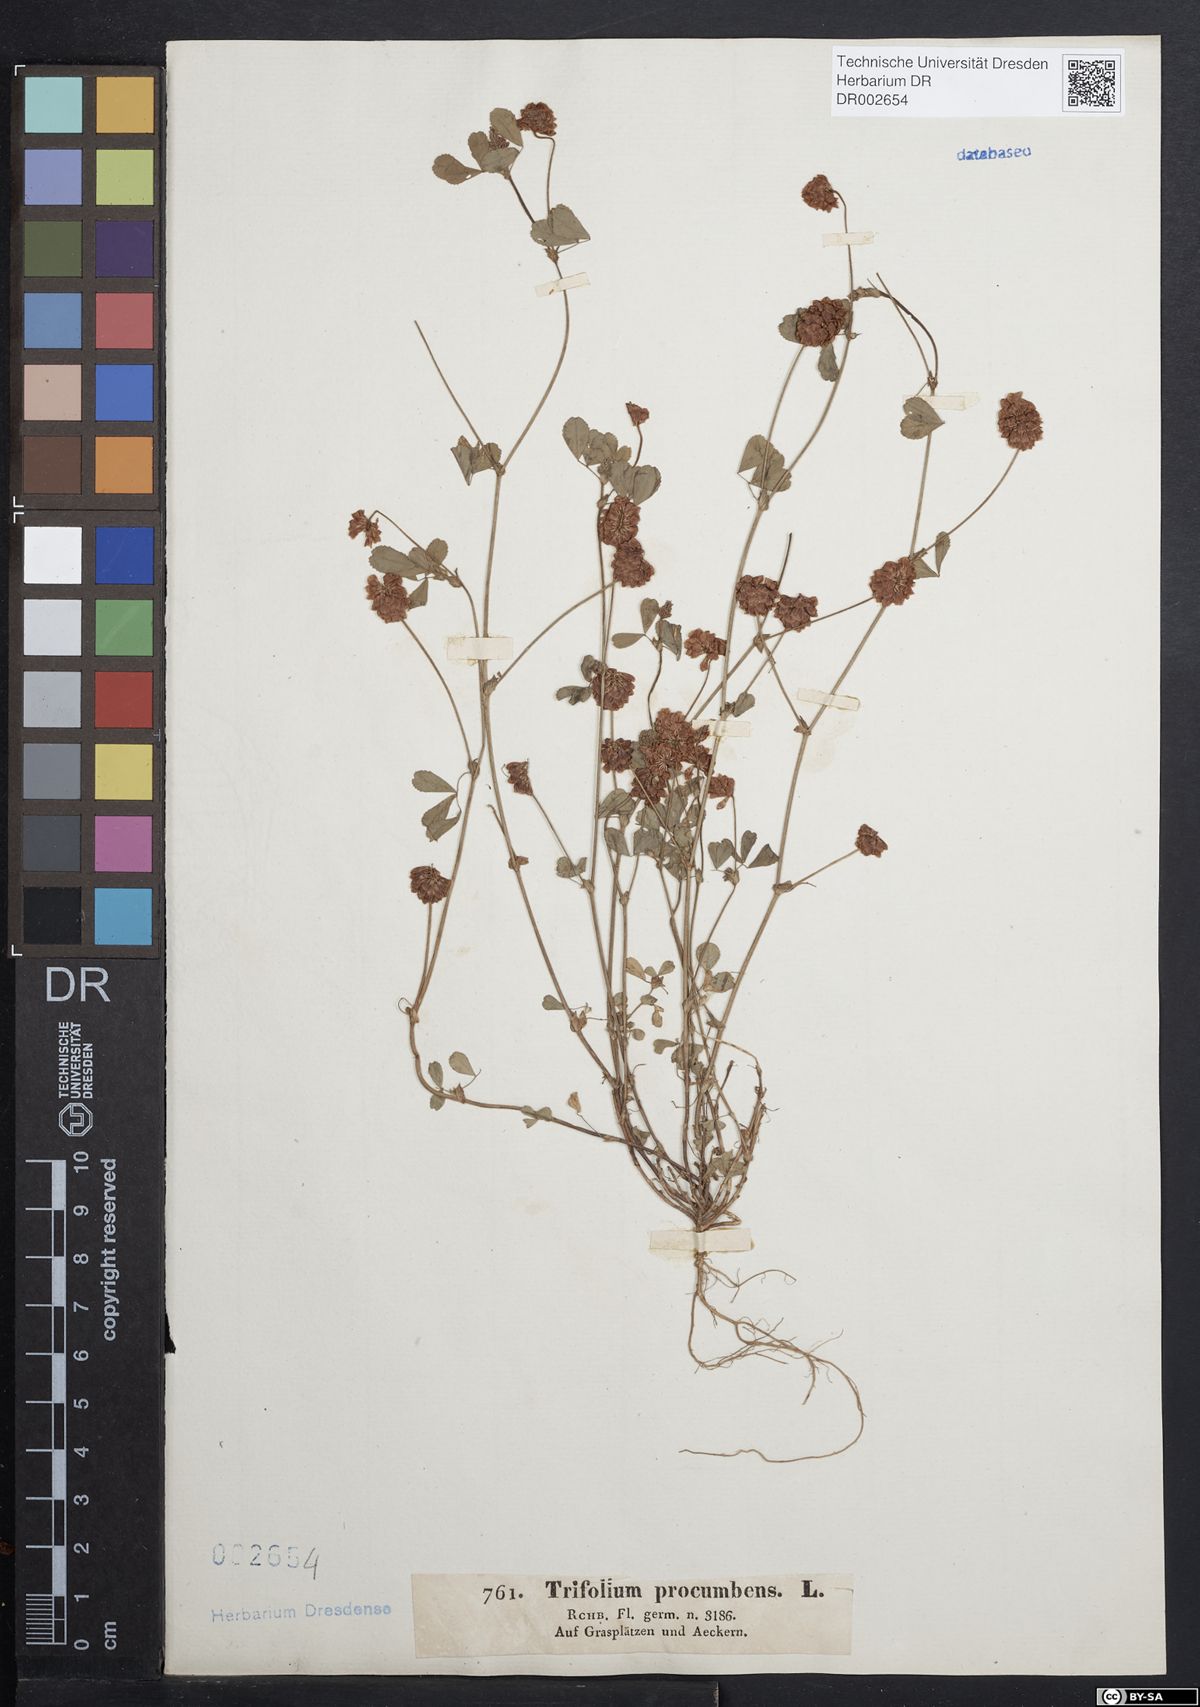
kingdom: Plantae
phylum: Tracheophyta
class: Magnoliopsida
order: Fabales
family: Fabaceae
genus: Trifolium
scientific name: Trifolium campestre
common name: Field clover
